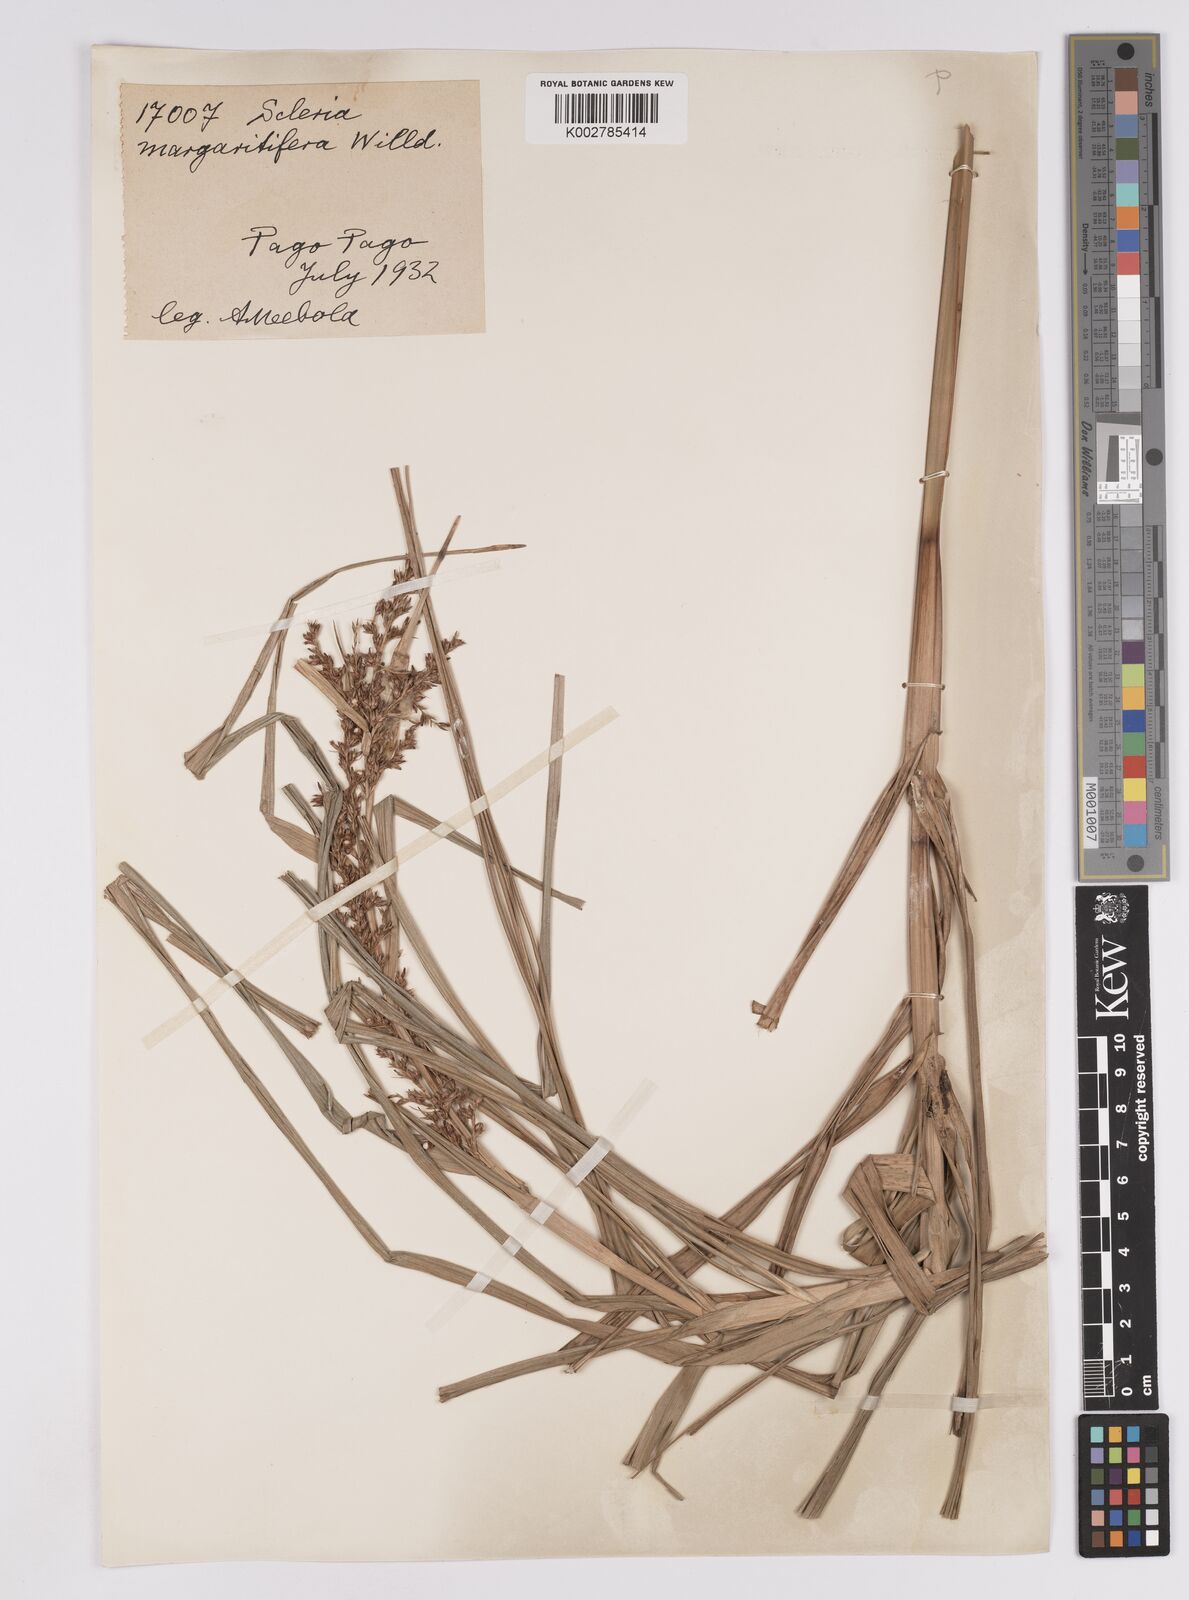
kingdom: Plantae
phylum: Tracheophyta
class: Liliopsida
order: Poales
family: Cyperaceae
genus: Scleria
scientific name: Scleria polycarpa
